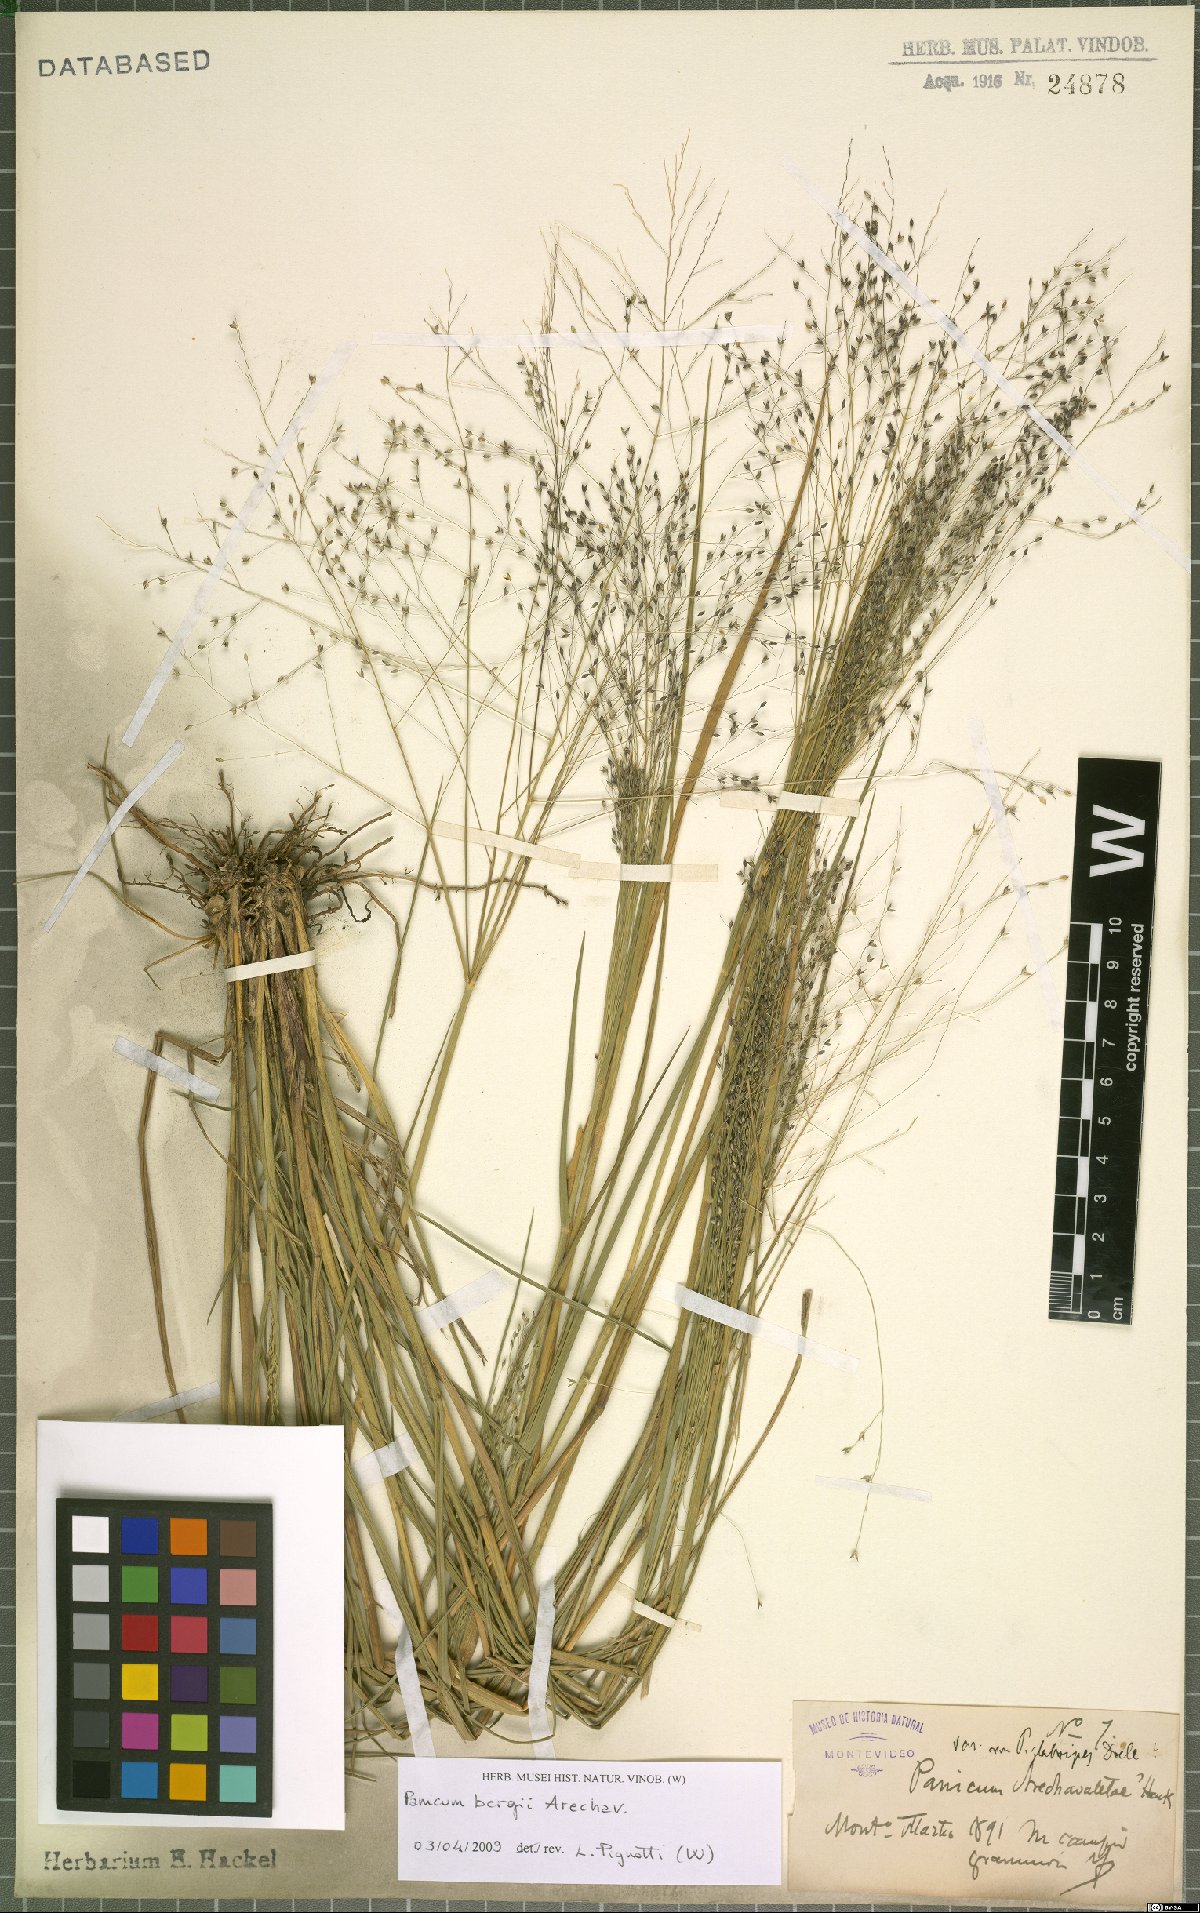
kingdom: Plantae
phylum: Tracheophyta
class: Liliopsida
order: Poales
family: Poaceae
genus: Panicum
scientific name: Panicum bergii
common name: Berg's panicgrass
